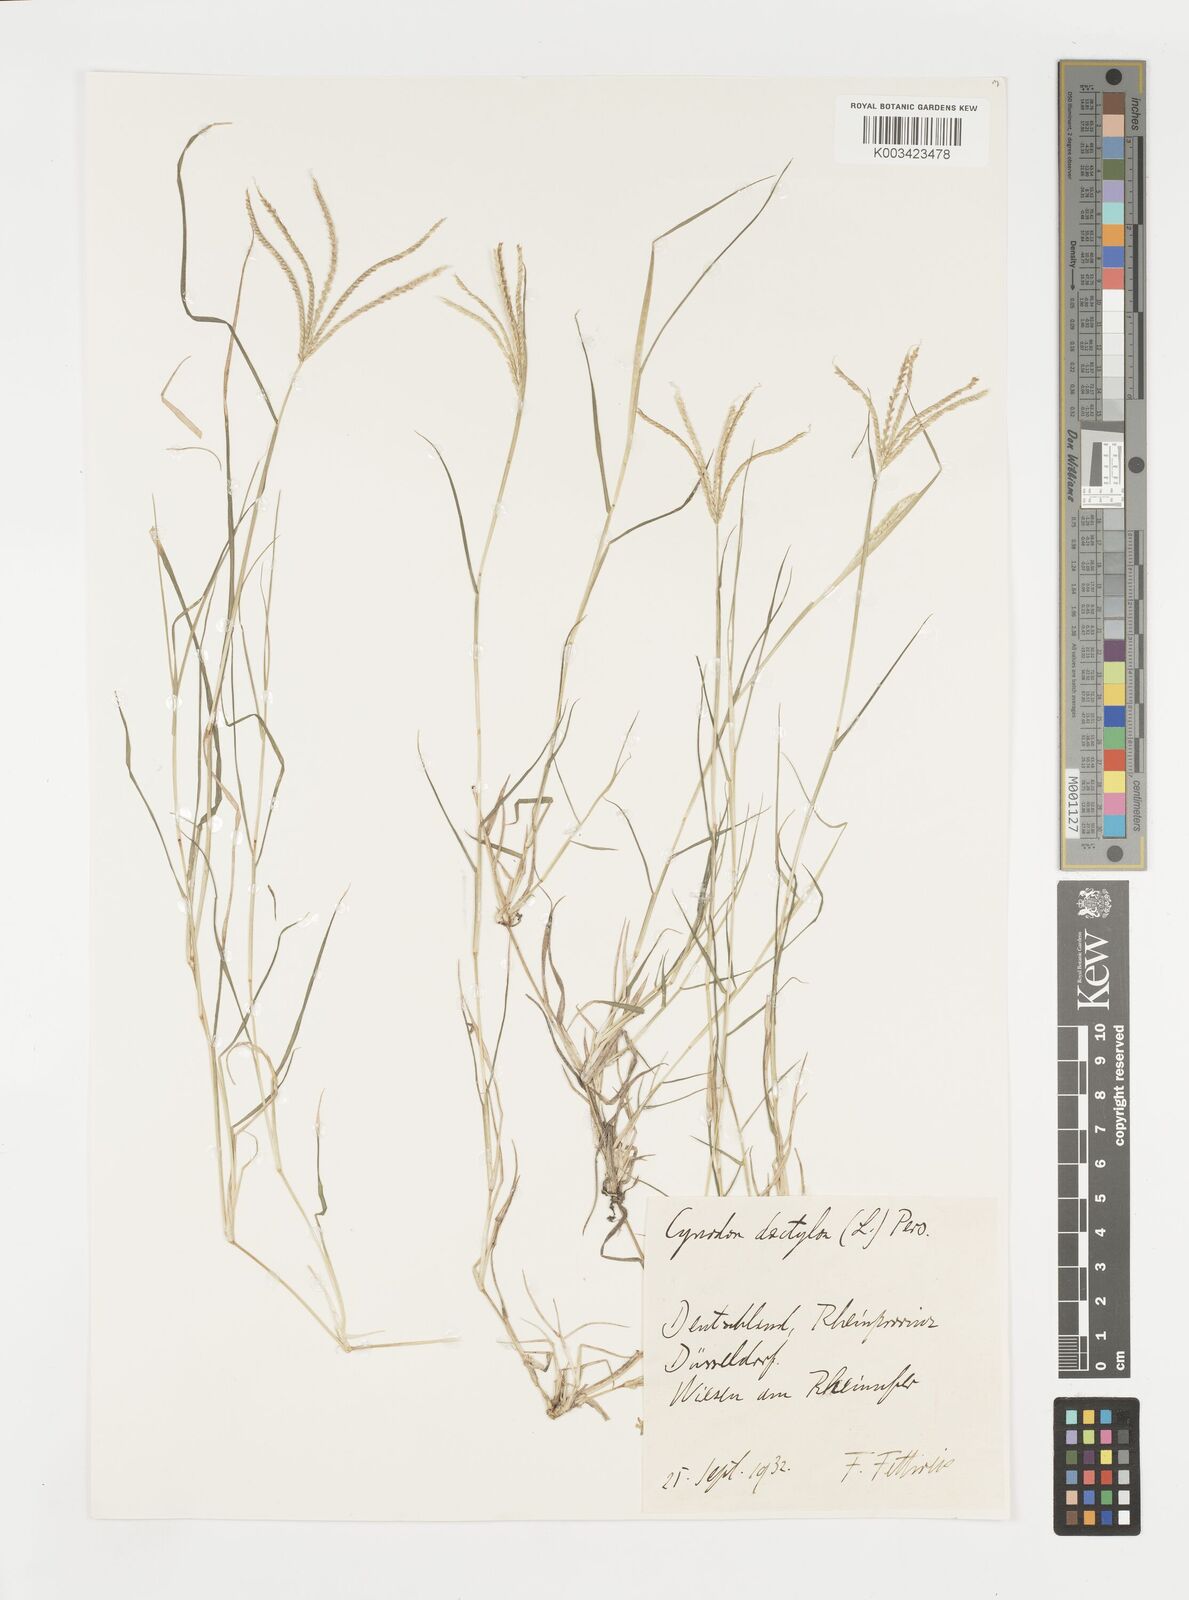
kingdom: Plantae
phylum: Tracheophyta
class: Liliopsida
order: Poales
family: Poaceae
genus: Cynodon
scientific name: Cynodon dactylon
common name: Bermuda grass
